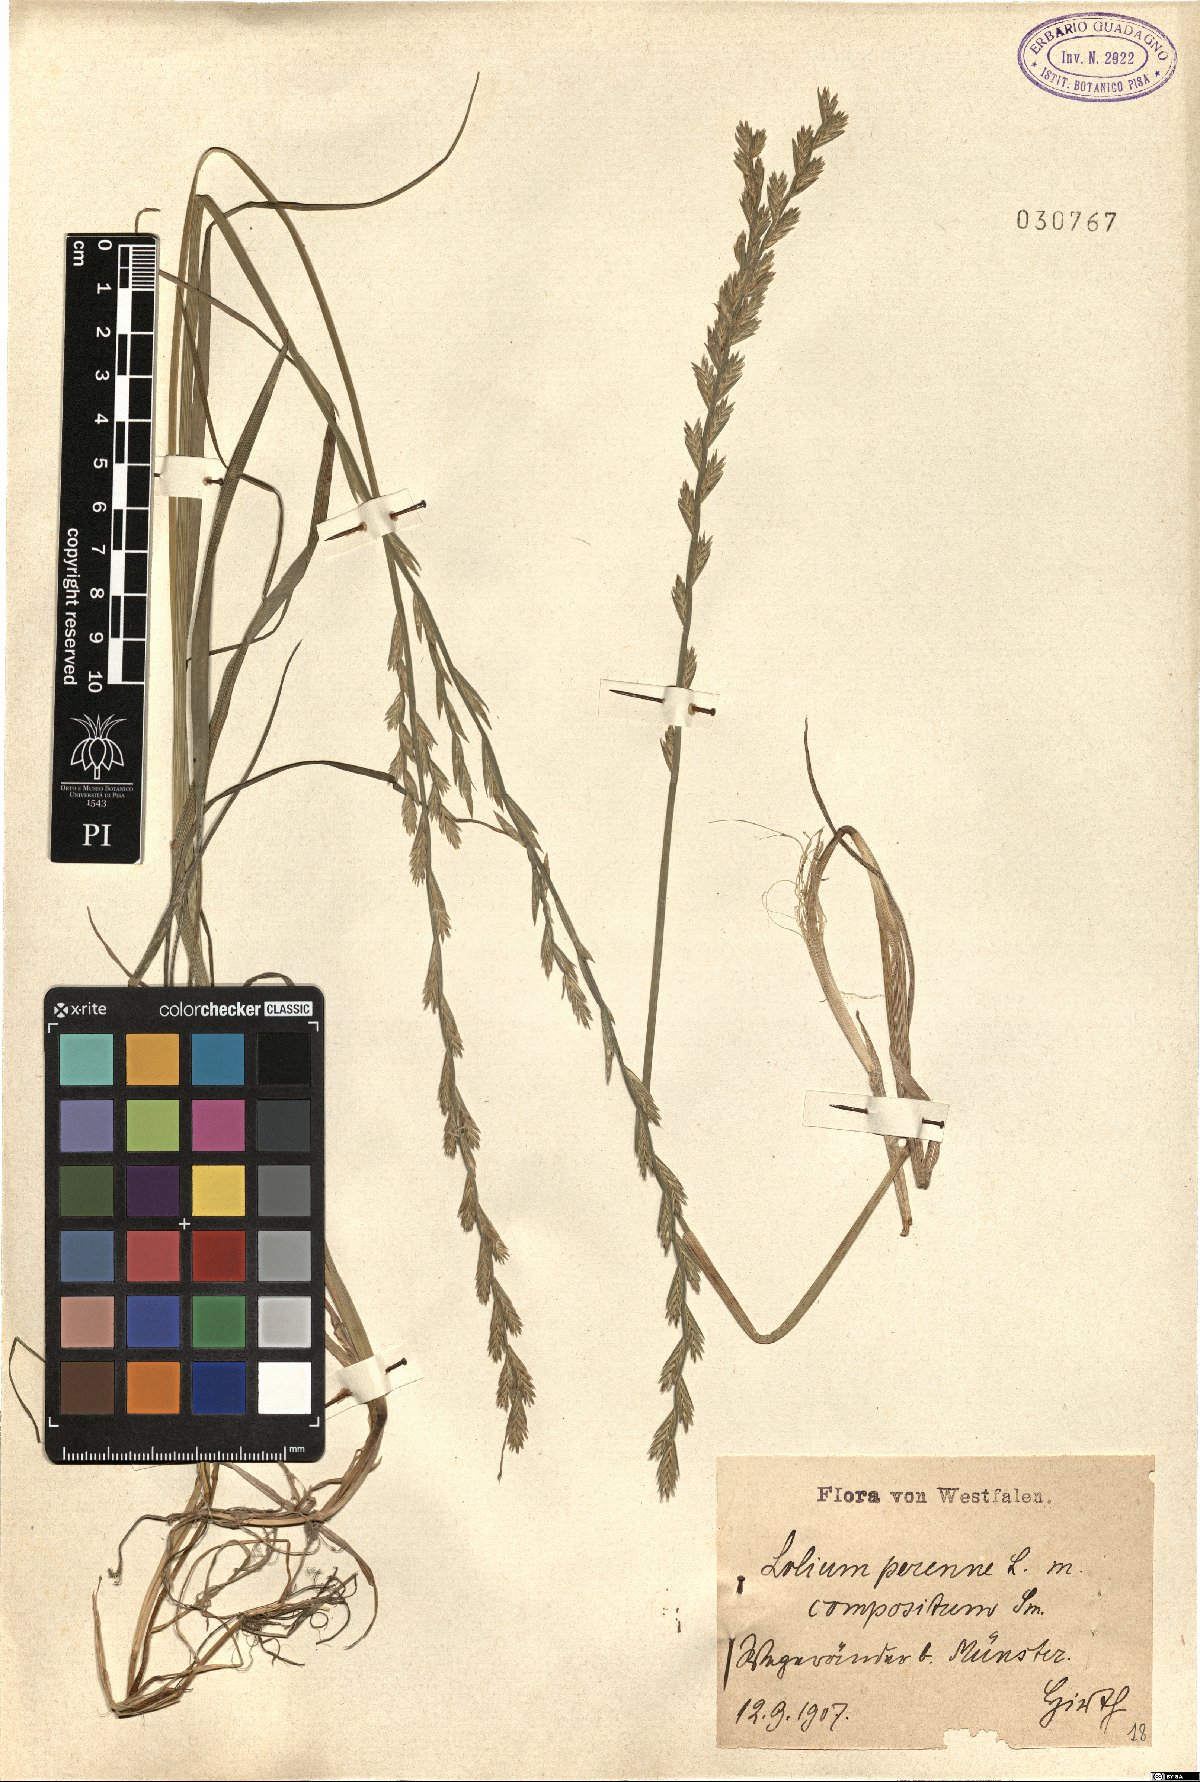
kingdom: Plantae
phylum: Tracheophyta
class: Liliopsida
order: Poales
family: Poaceae
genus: Lolium
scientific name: Lolium perenne
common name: Perennial ryegrass
